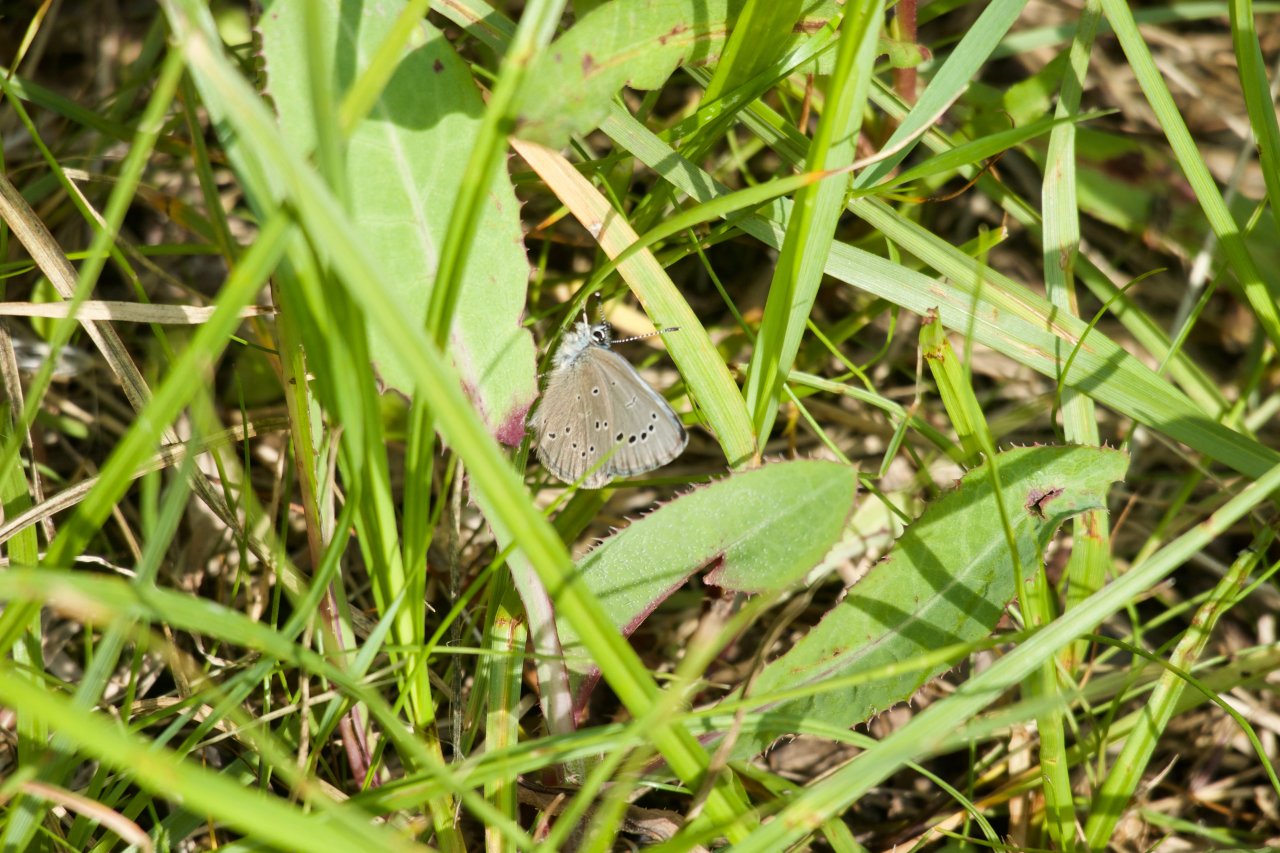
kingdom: Animalia
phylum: Arthropoda
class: Insecta
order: Lepidoptera
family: Lycaenidae
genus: Glaucopsyche
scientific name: Glaucopsyche lygdamus
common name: Silvery Blue
